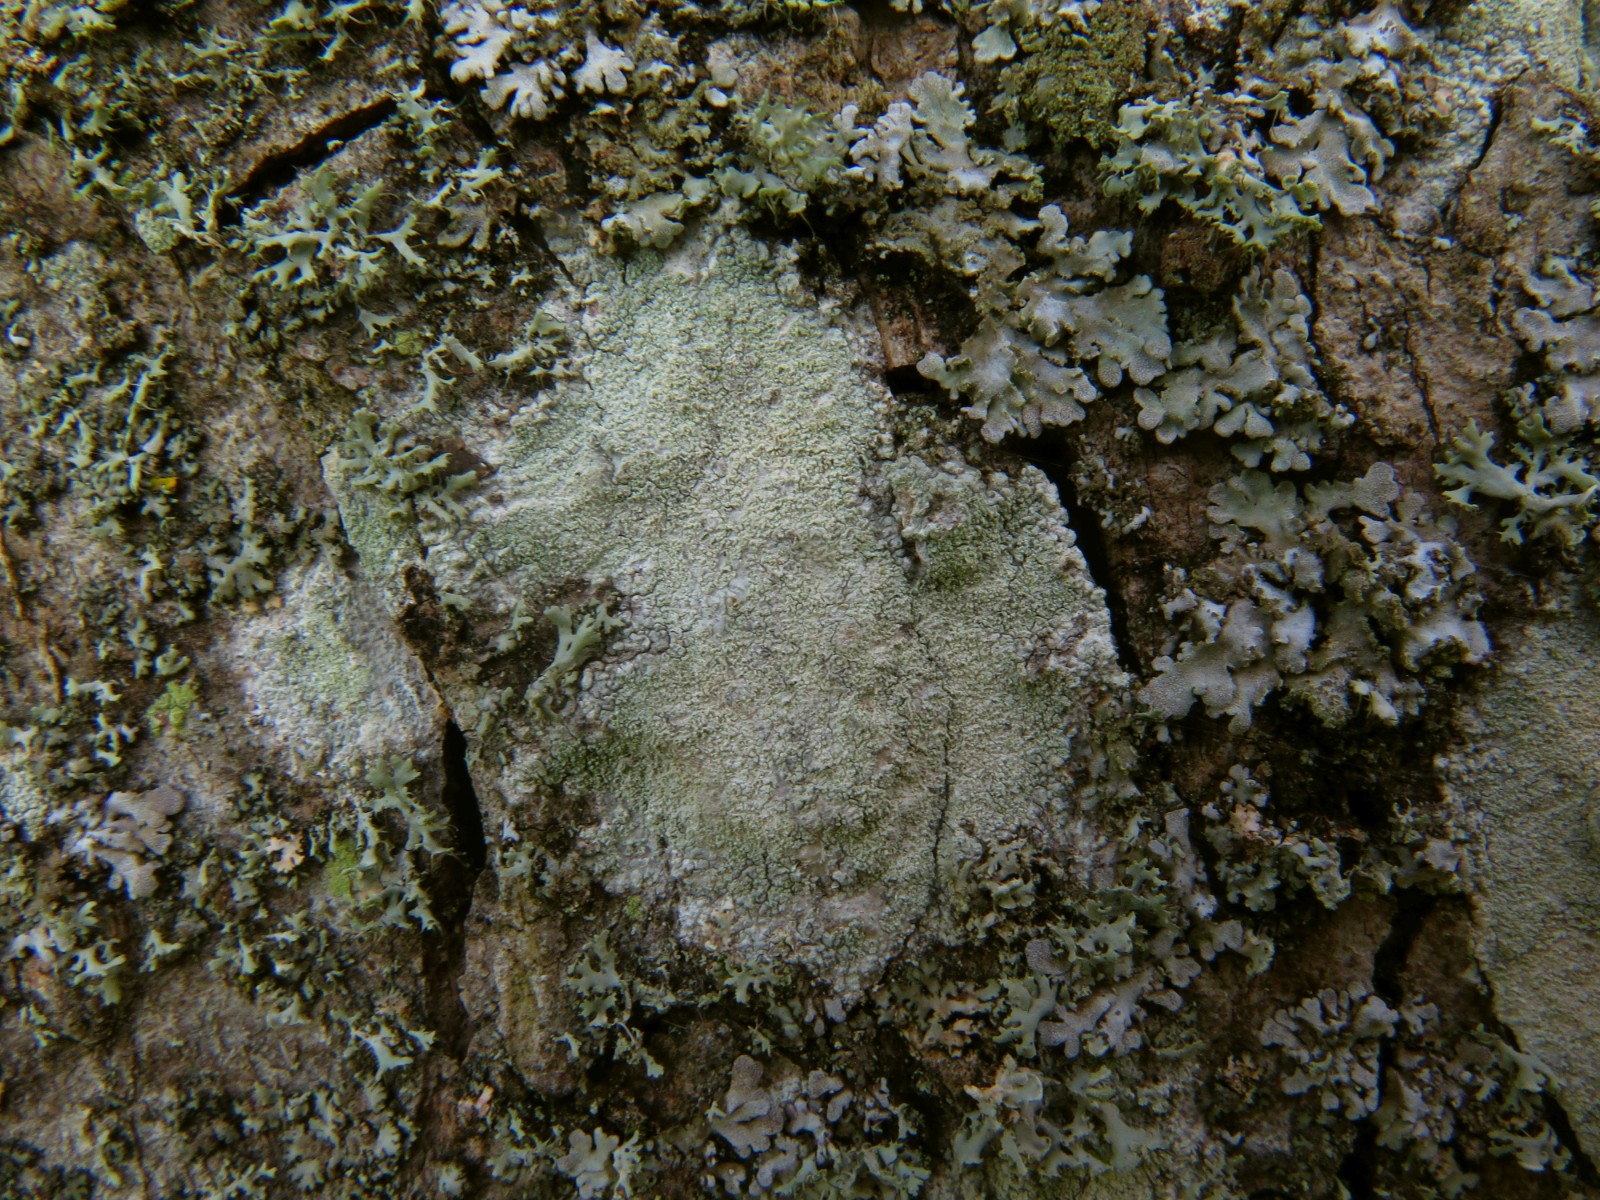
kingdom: Fungi
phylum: Ascomycota
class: Lecanoromycetes
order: Ostropales
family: Phlyctidaceae
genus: Phlyctis
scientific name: Phlyctis argena
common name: almindelig sølvlav
